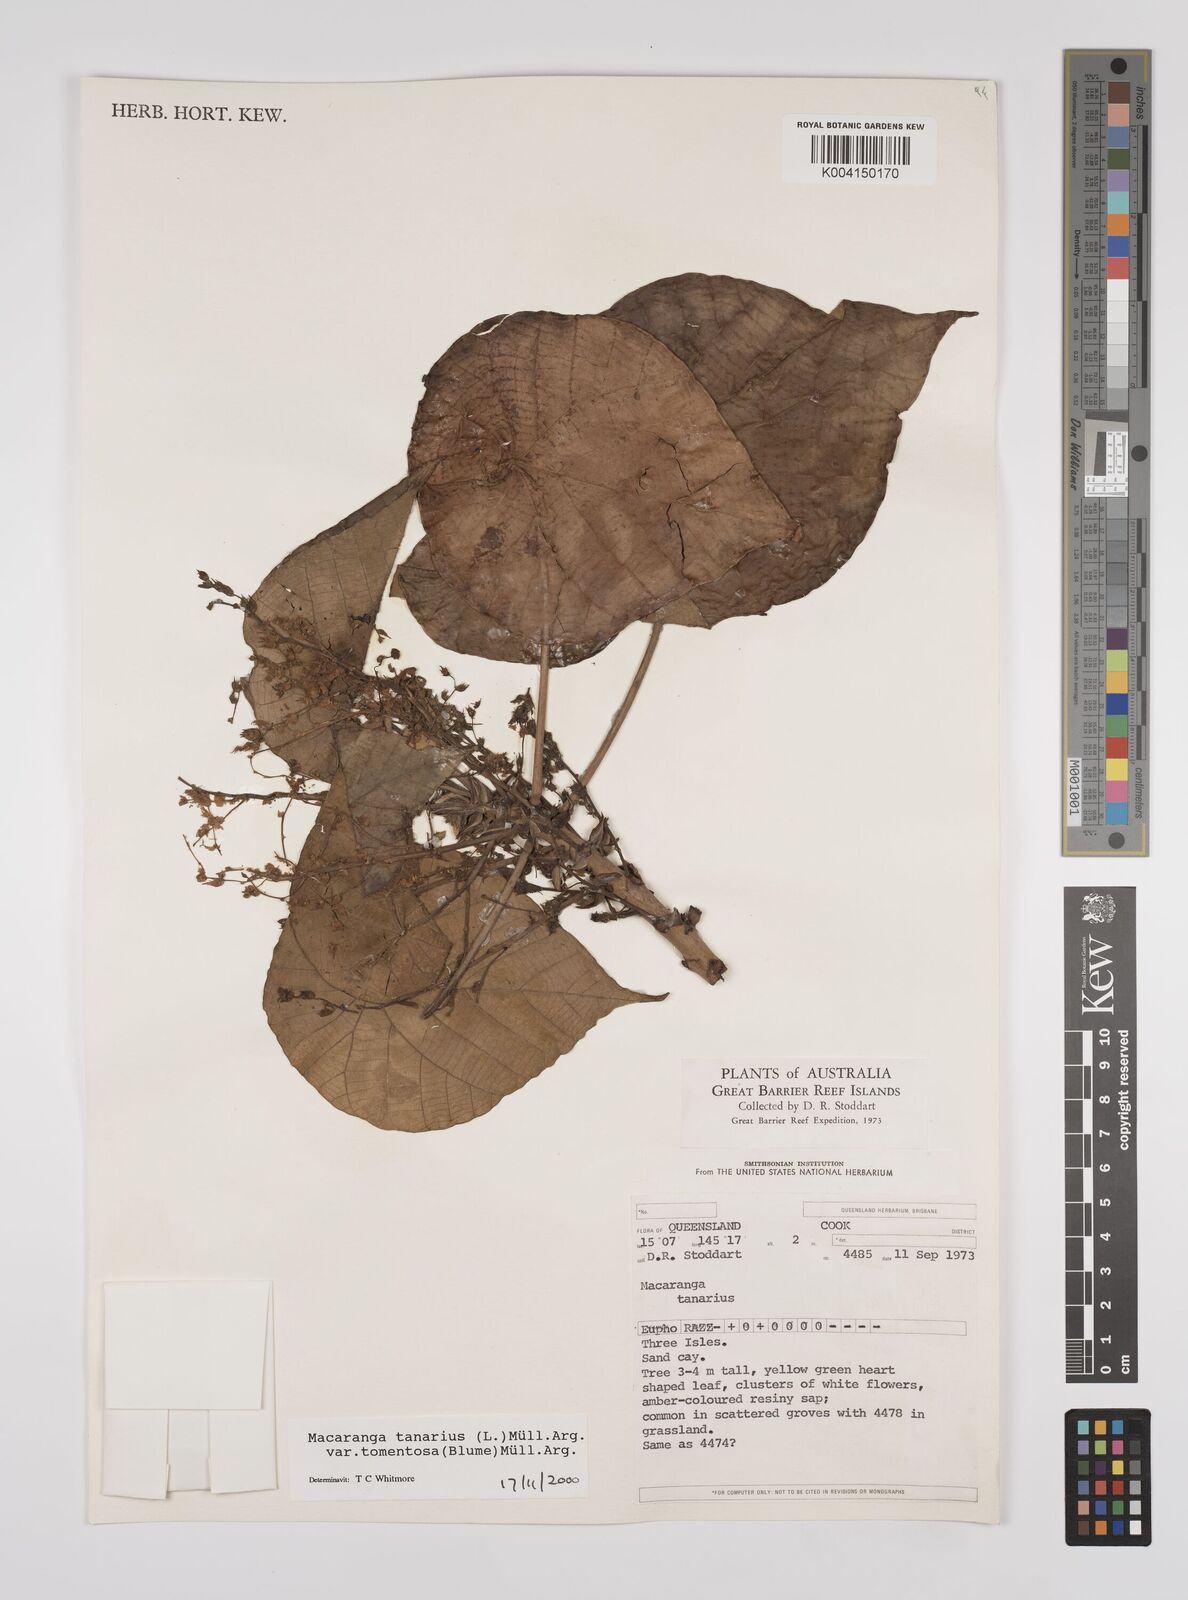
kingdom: Plantae
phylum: Tracheophyta
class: Magnoliopsida
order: Malpighiales
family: Euphorbiaceae
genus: Macaranga
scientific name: Macaranga tanarius
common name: Parasol leaf tree
